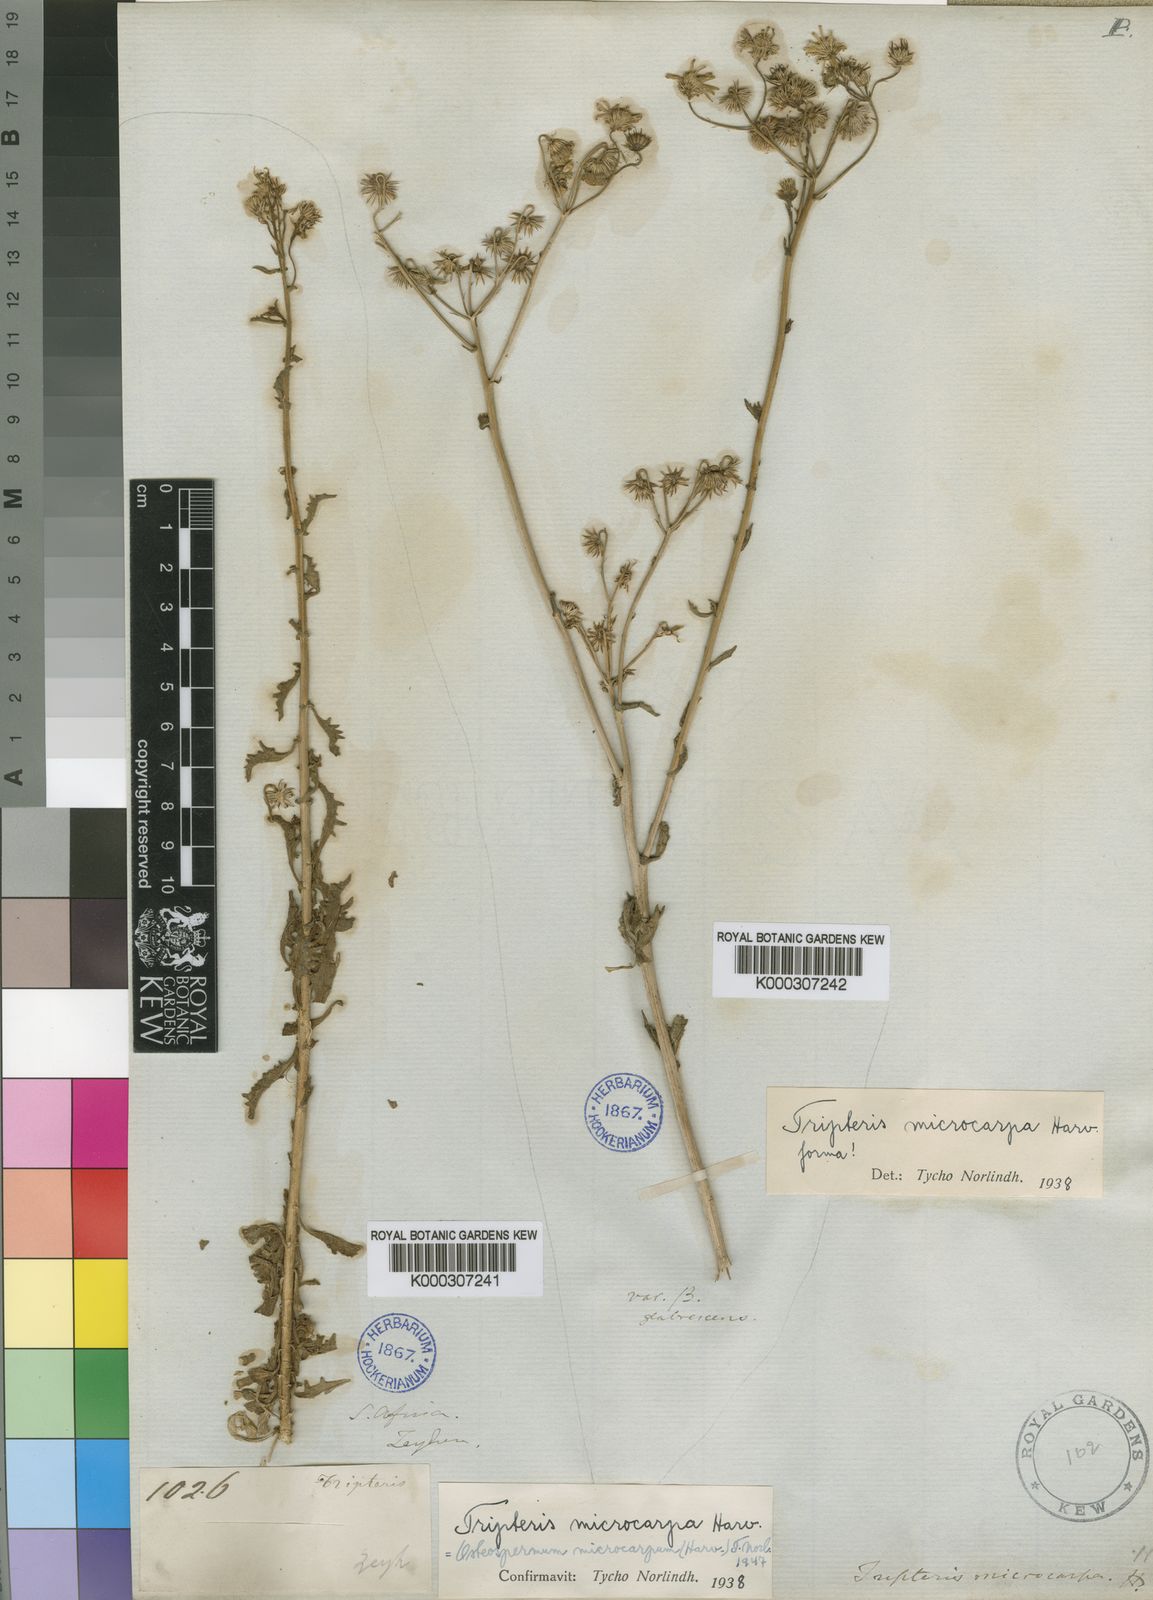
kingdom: Plantae
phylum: Tracheophyta
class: Magnoliopsida
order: Asterales
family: Asteraceae
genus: Osteospermum
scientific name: Osteospermum microcarpum
